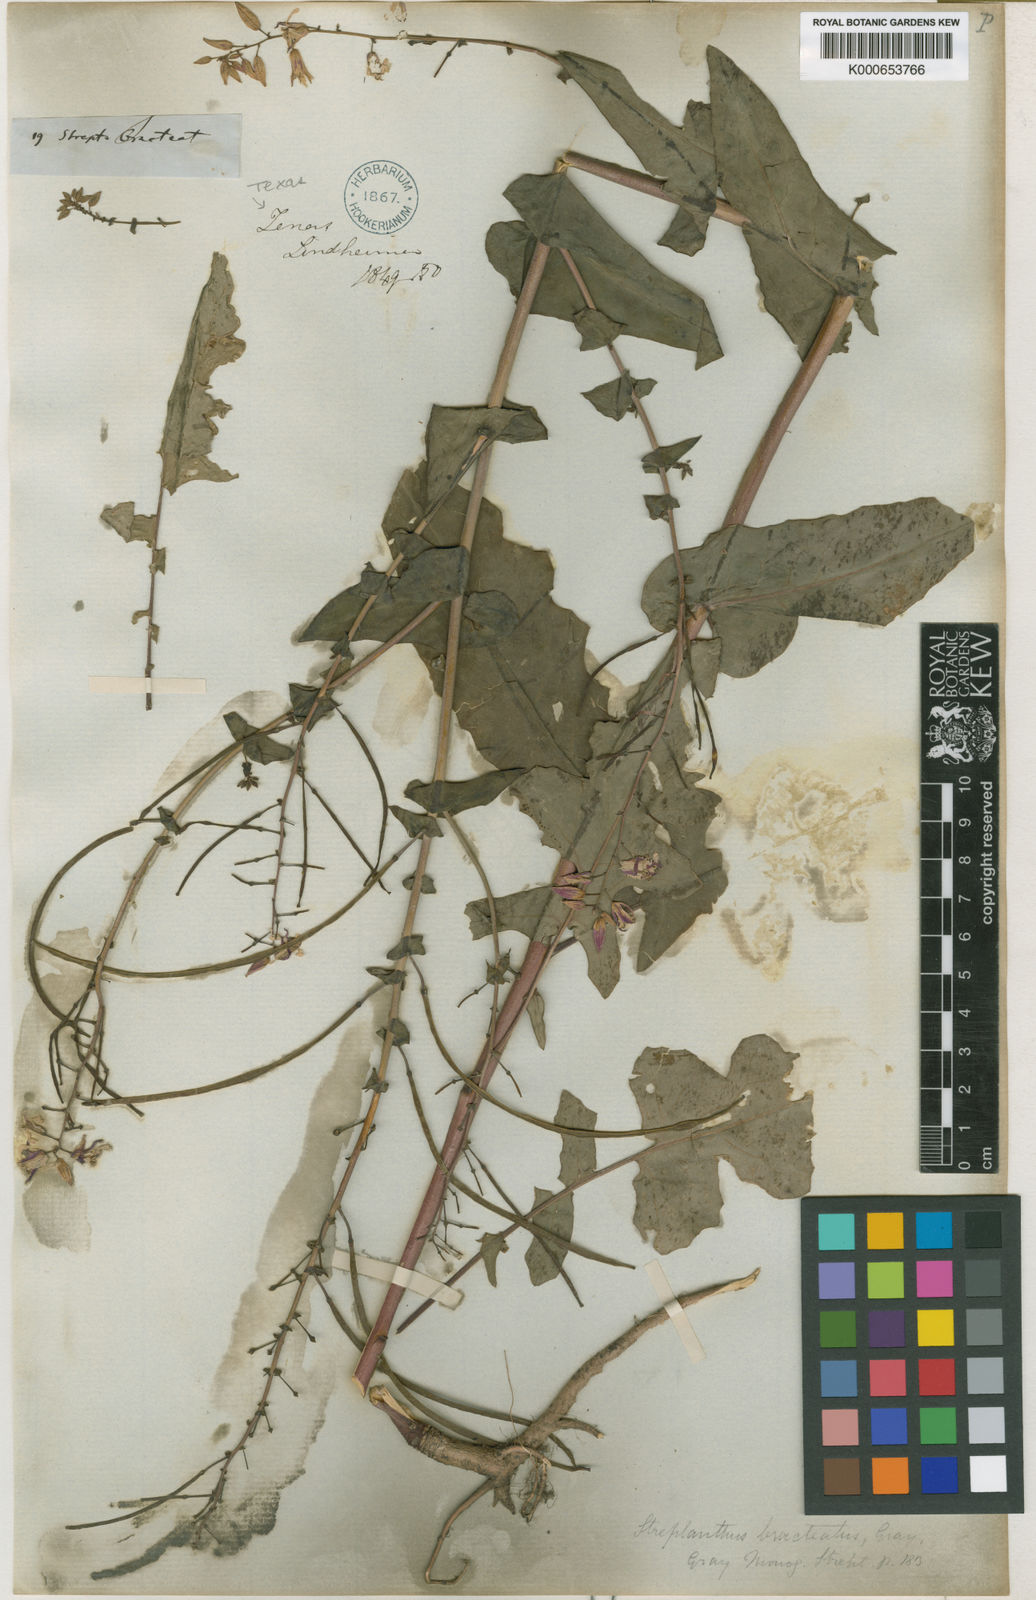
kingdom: Plantae
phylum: Tracheophyta
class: Magnoliopsida
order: Brassicales
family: Brassicaceae
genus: Streptanthus
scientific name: Streptanthus bracteatus
